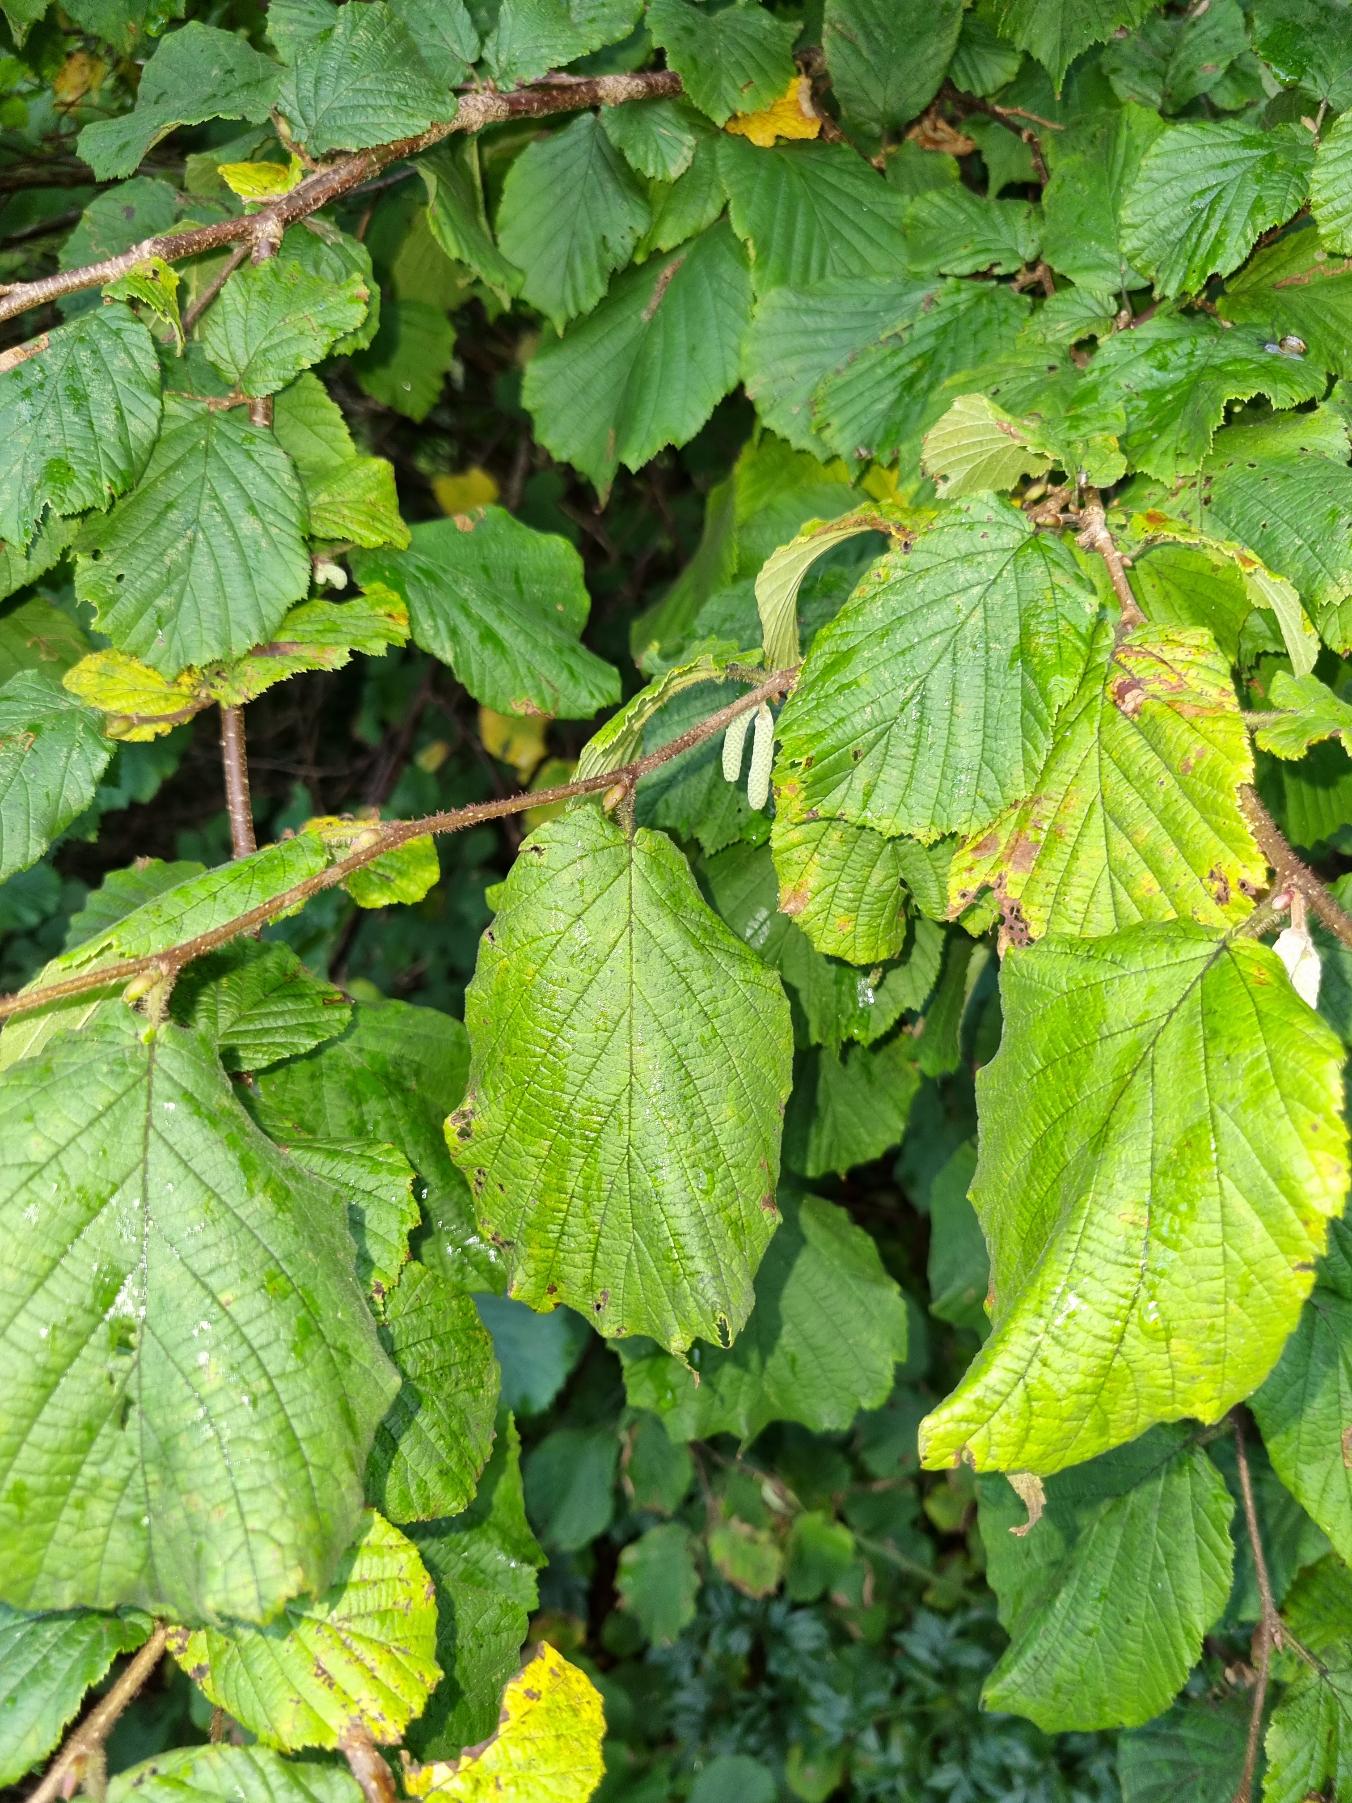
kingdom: Plantae
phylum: Tracheophyta
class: Magnoliopsida
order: Fagales
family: Betulaceae
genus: Corylus
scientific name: Corylus avellana
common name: Hassel
